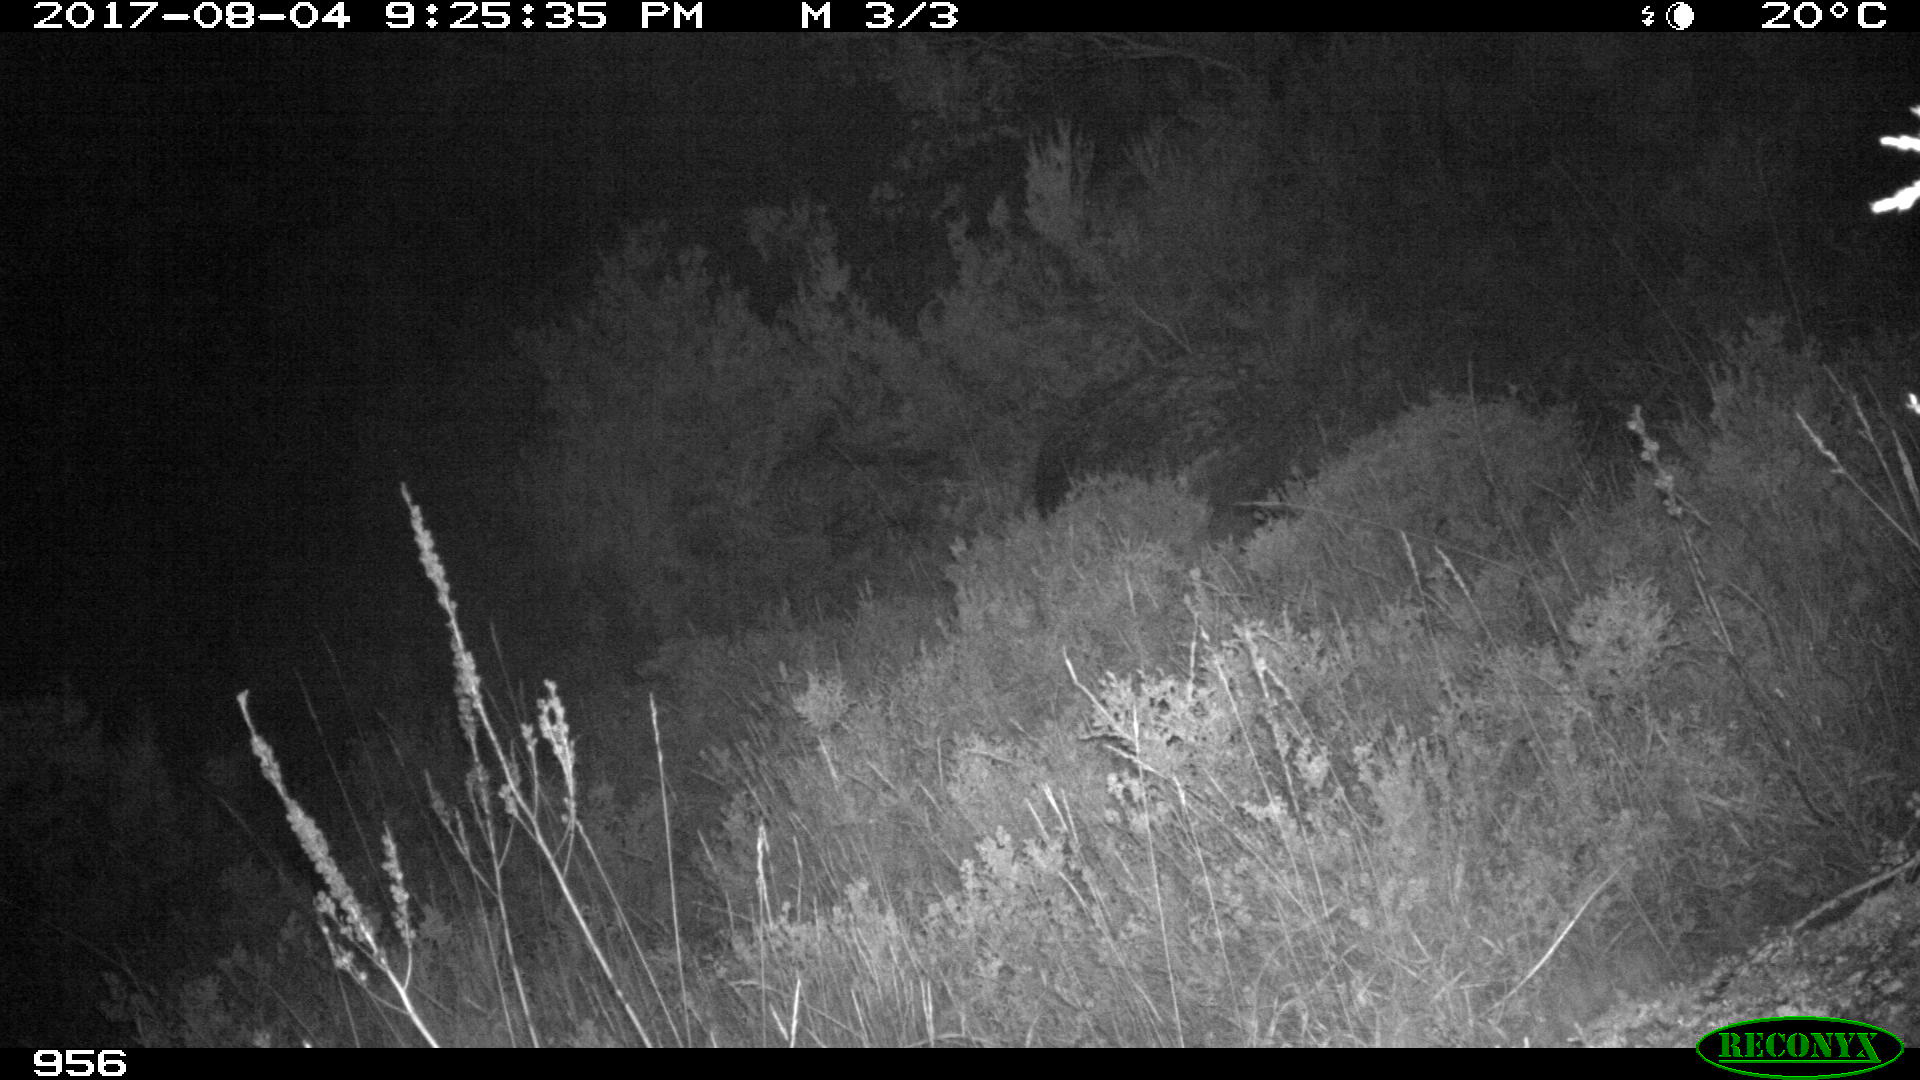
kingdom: Animalia
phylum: Chordata
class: Mammalia
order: Carnivora
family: Canidae
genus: Canis
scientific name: Canis lupus
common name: Gray wolf
